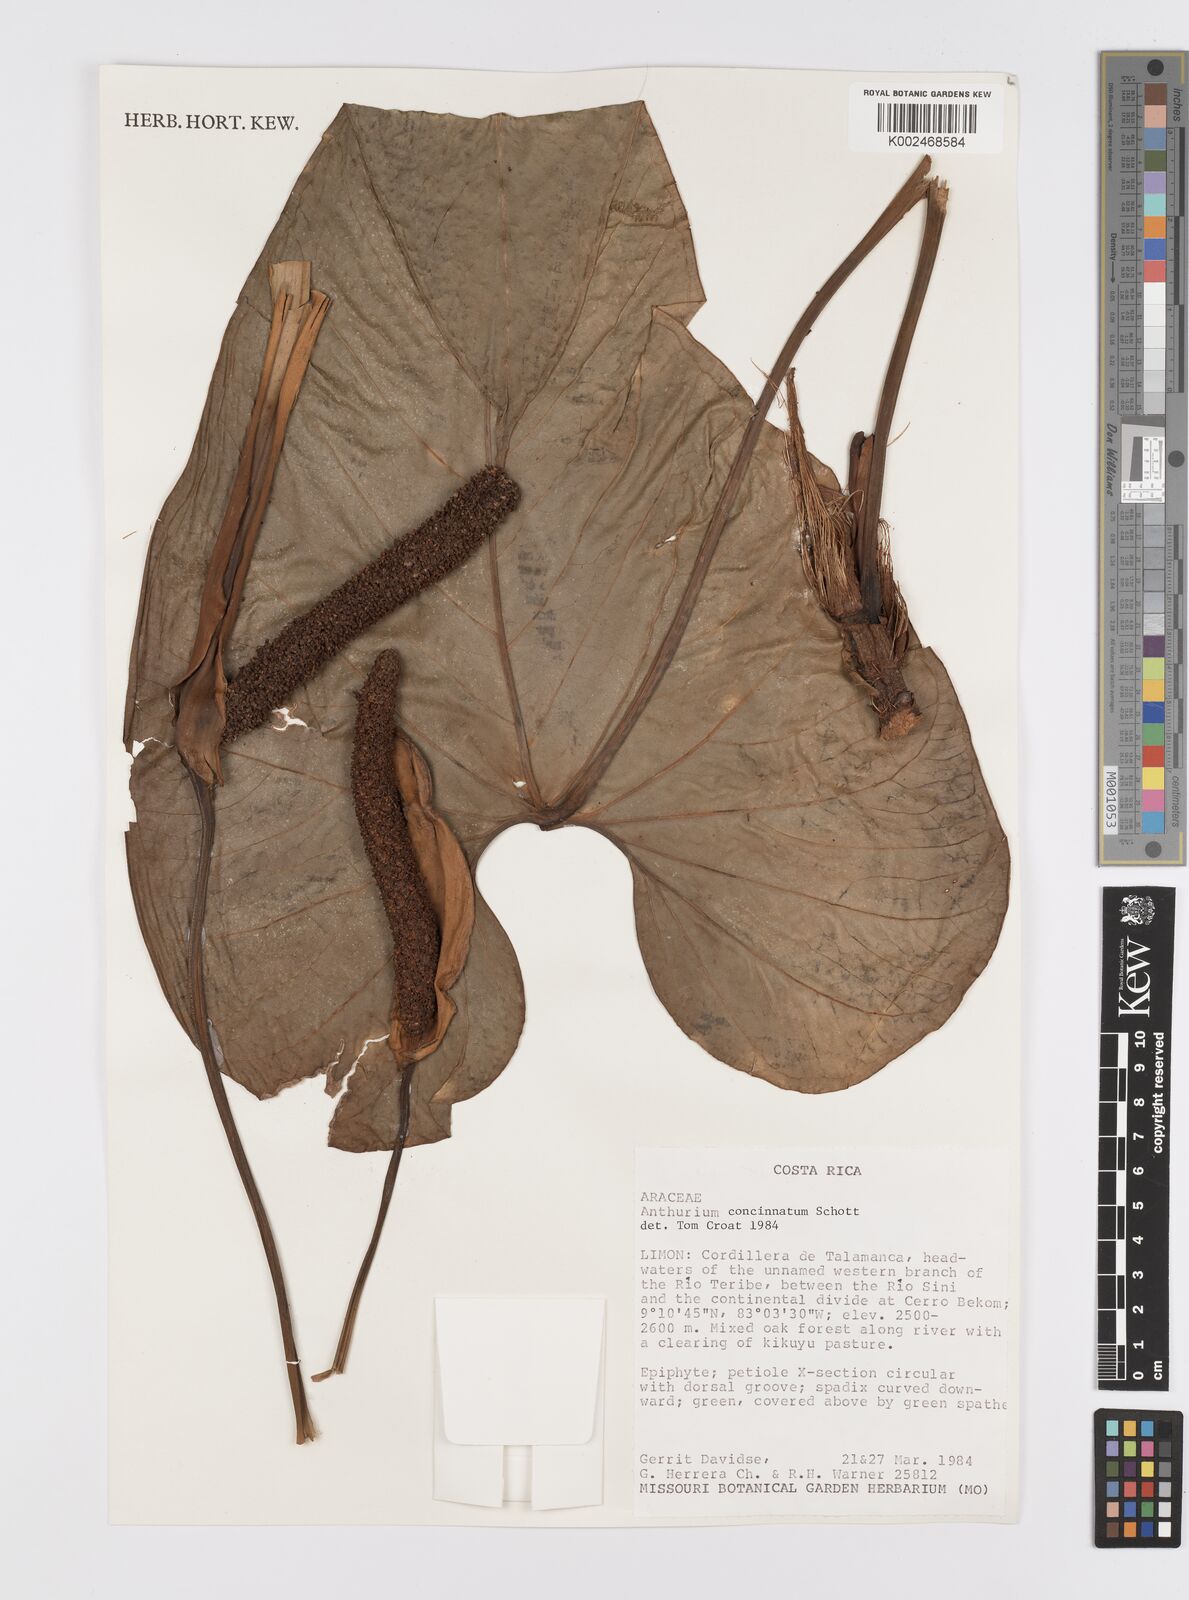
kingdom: Plantae
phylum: Tracheophyta
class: Liliopsida
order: Alismatales
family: Araceae
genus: Anthurium
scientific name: Anthurium concinnatum
